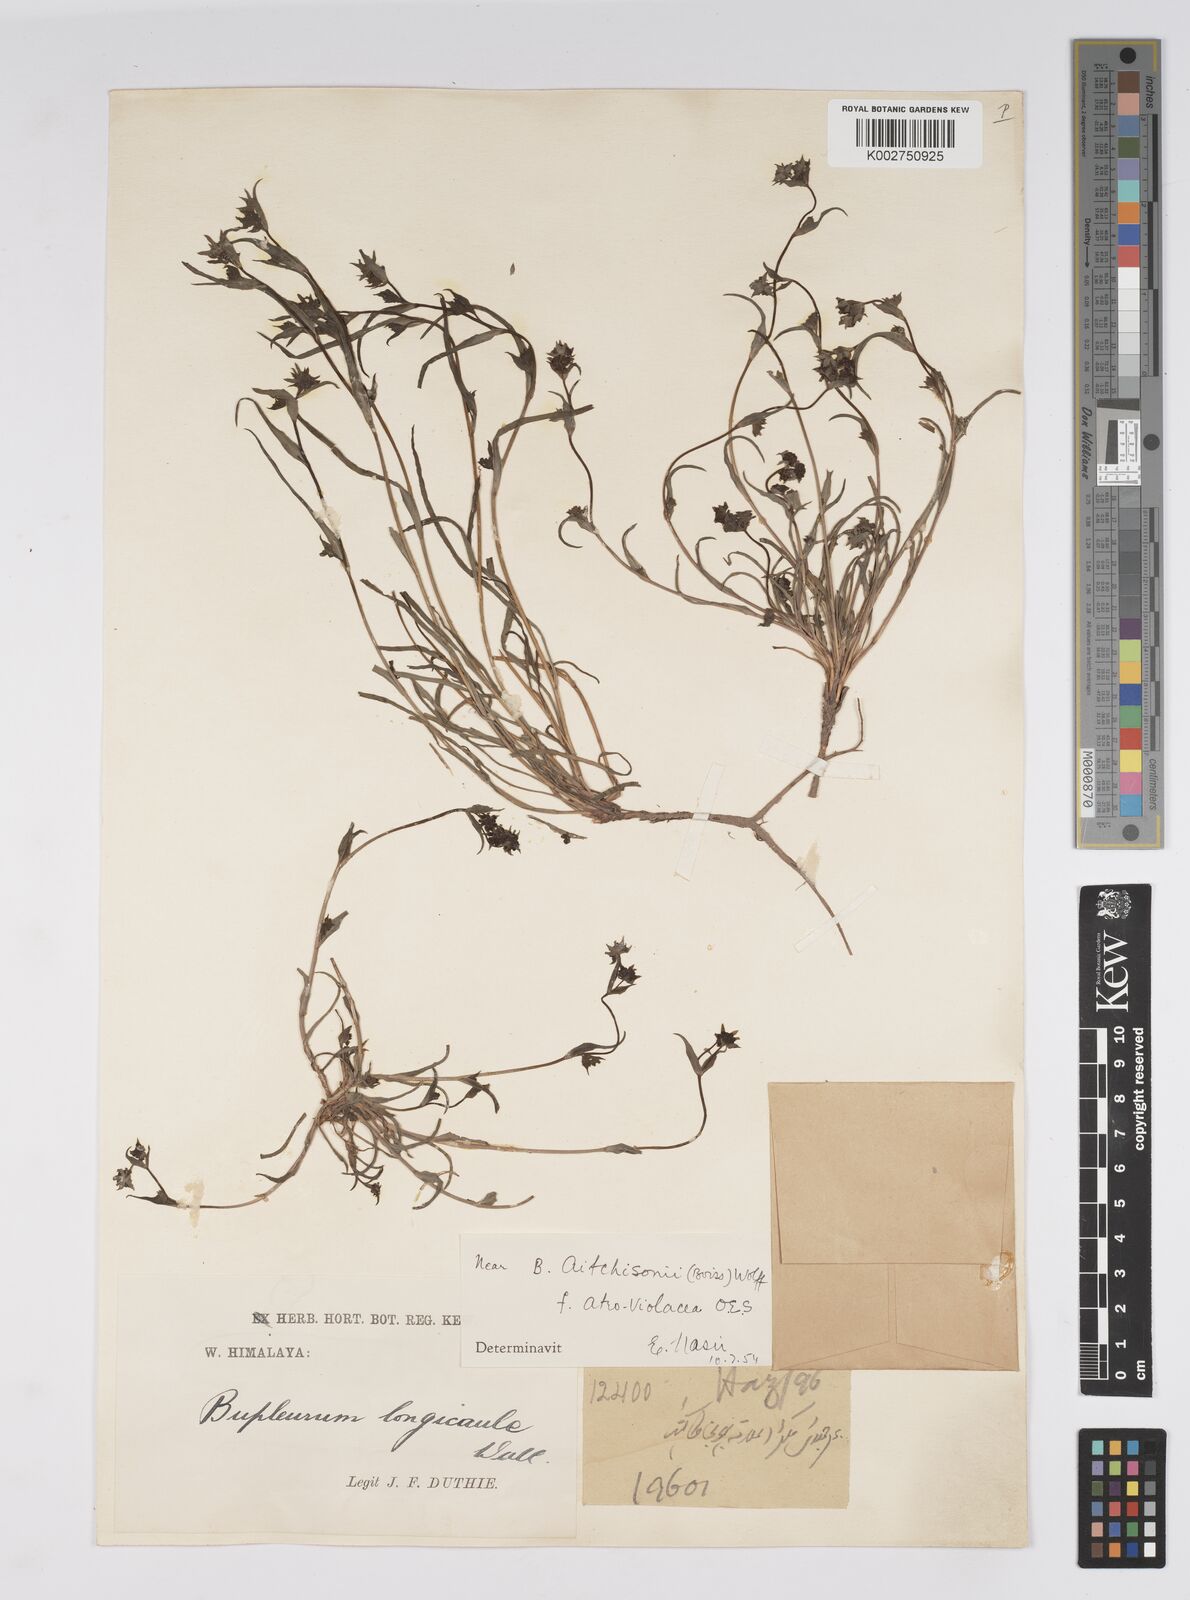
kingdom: Plantae
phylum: Tracheophyta
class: Magnoliopsida
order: Apiales
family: Apiaceae
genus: Bupleurum
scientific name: Bupleurum aitchisonii
